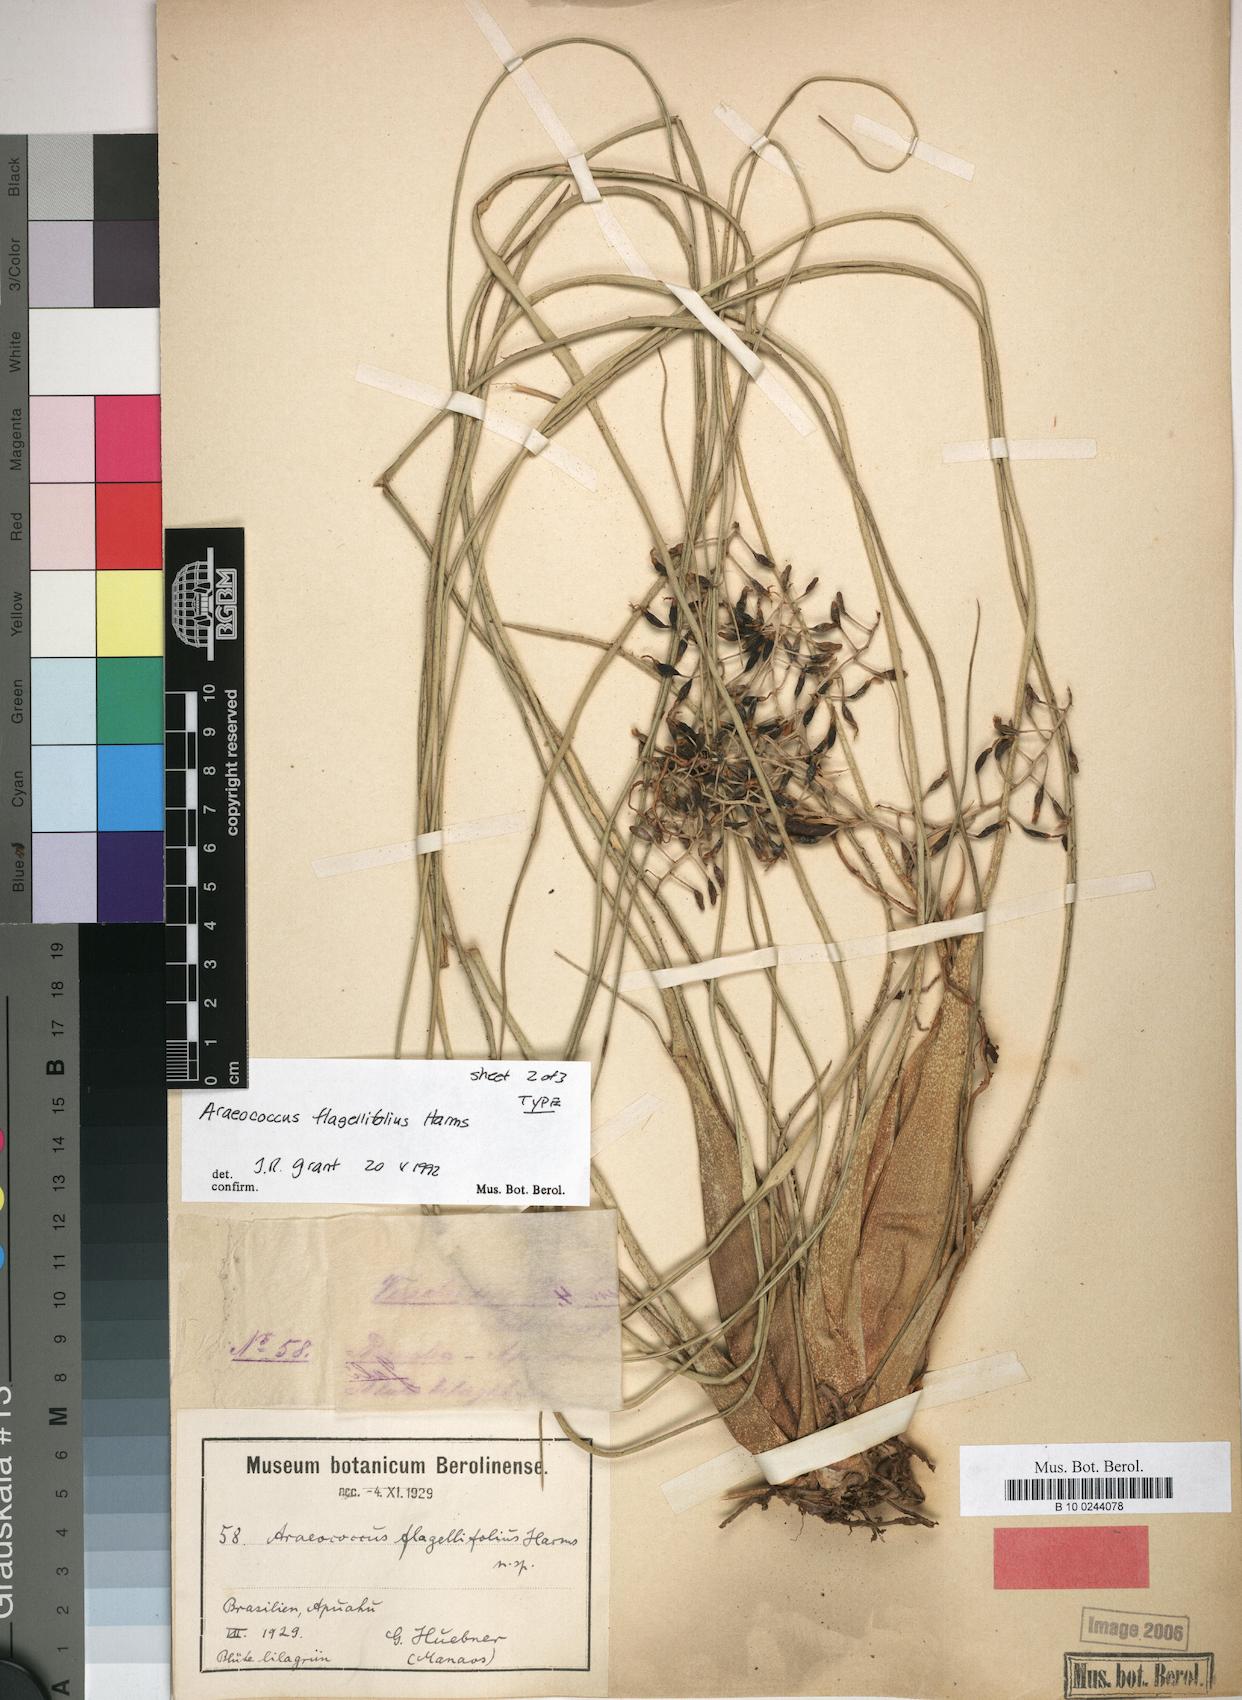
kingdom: Plantae
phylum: Tracheophyta
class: Liliopsida
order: Poales
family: Bromeliaceae
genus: Araeococcus
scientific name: Araeococcus flagellifolius
